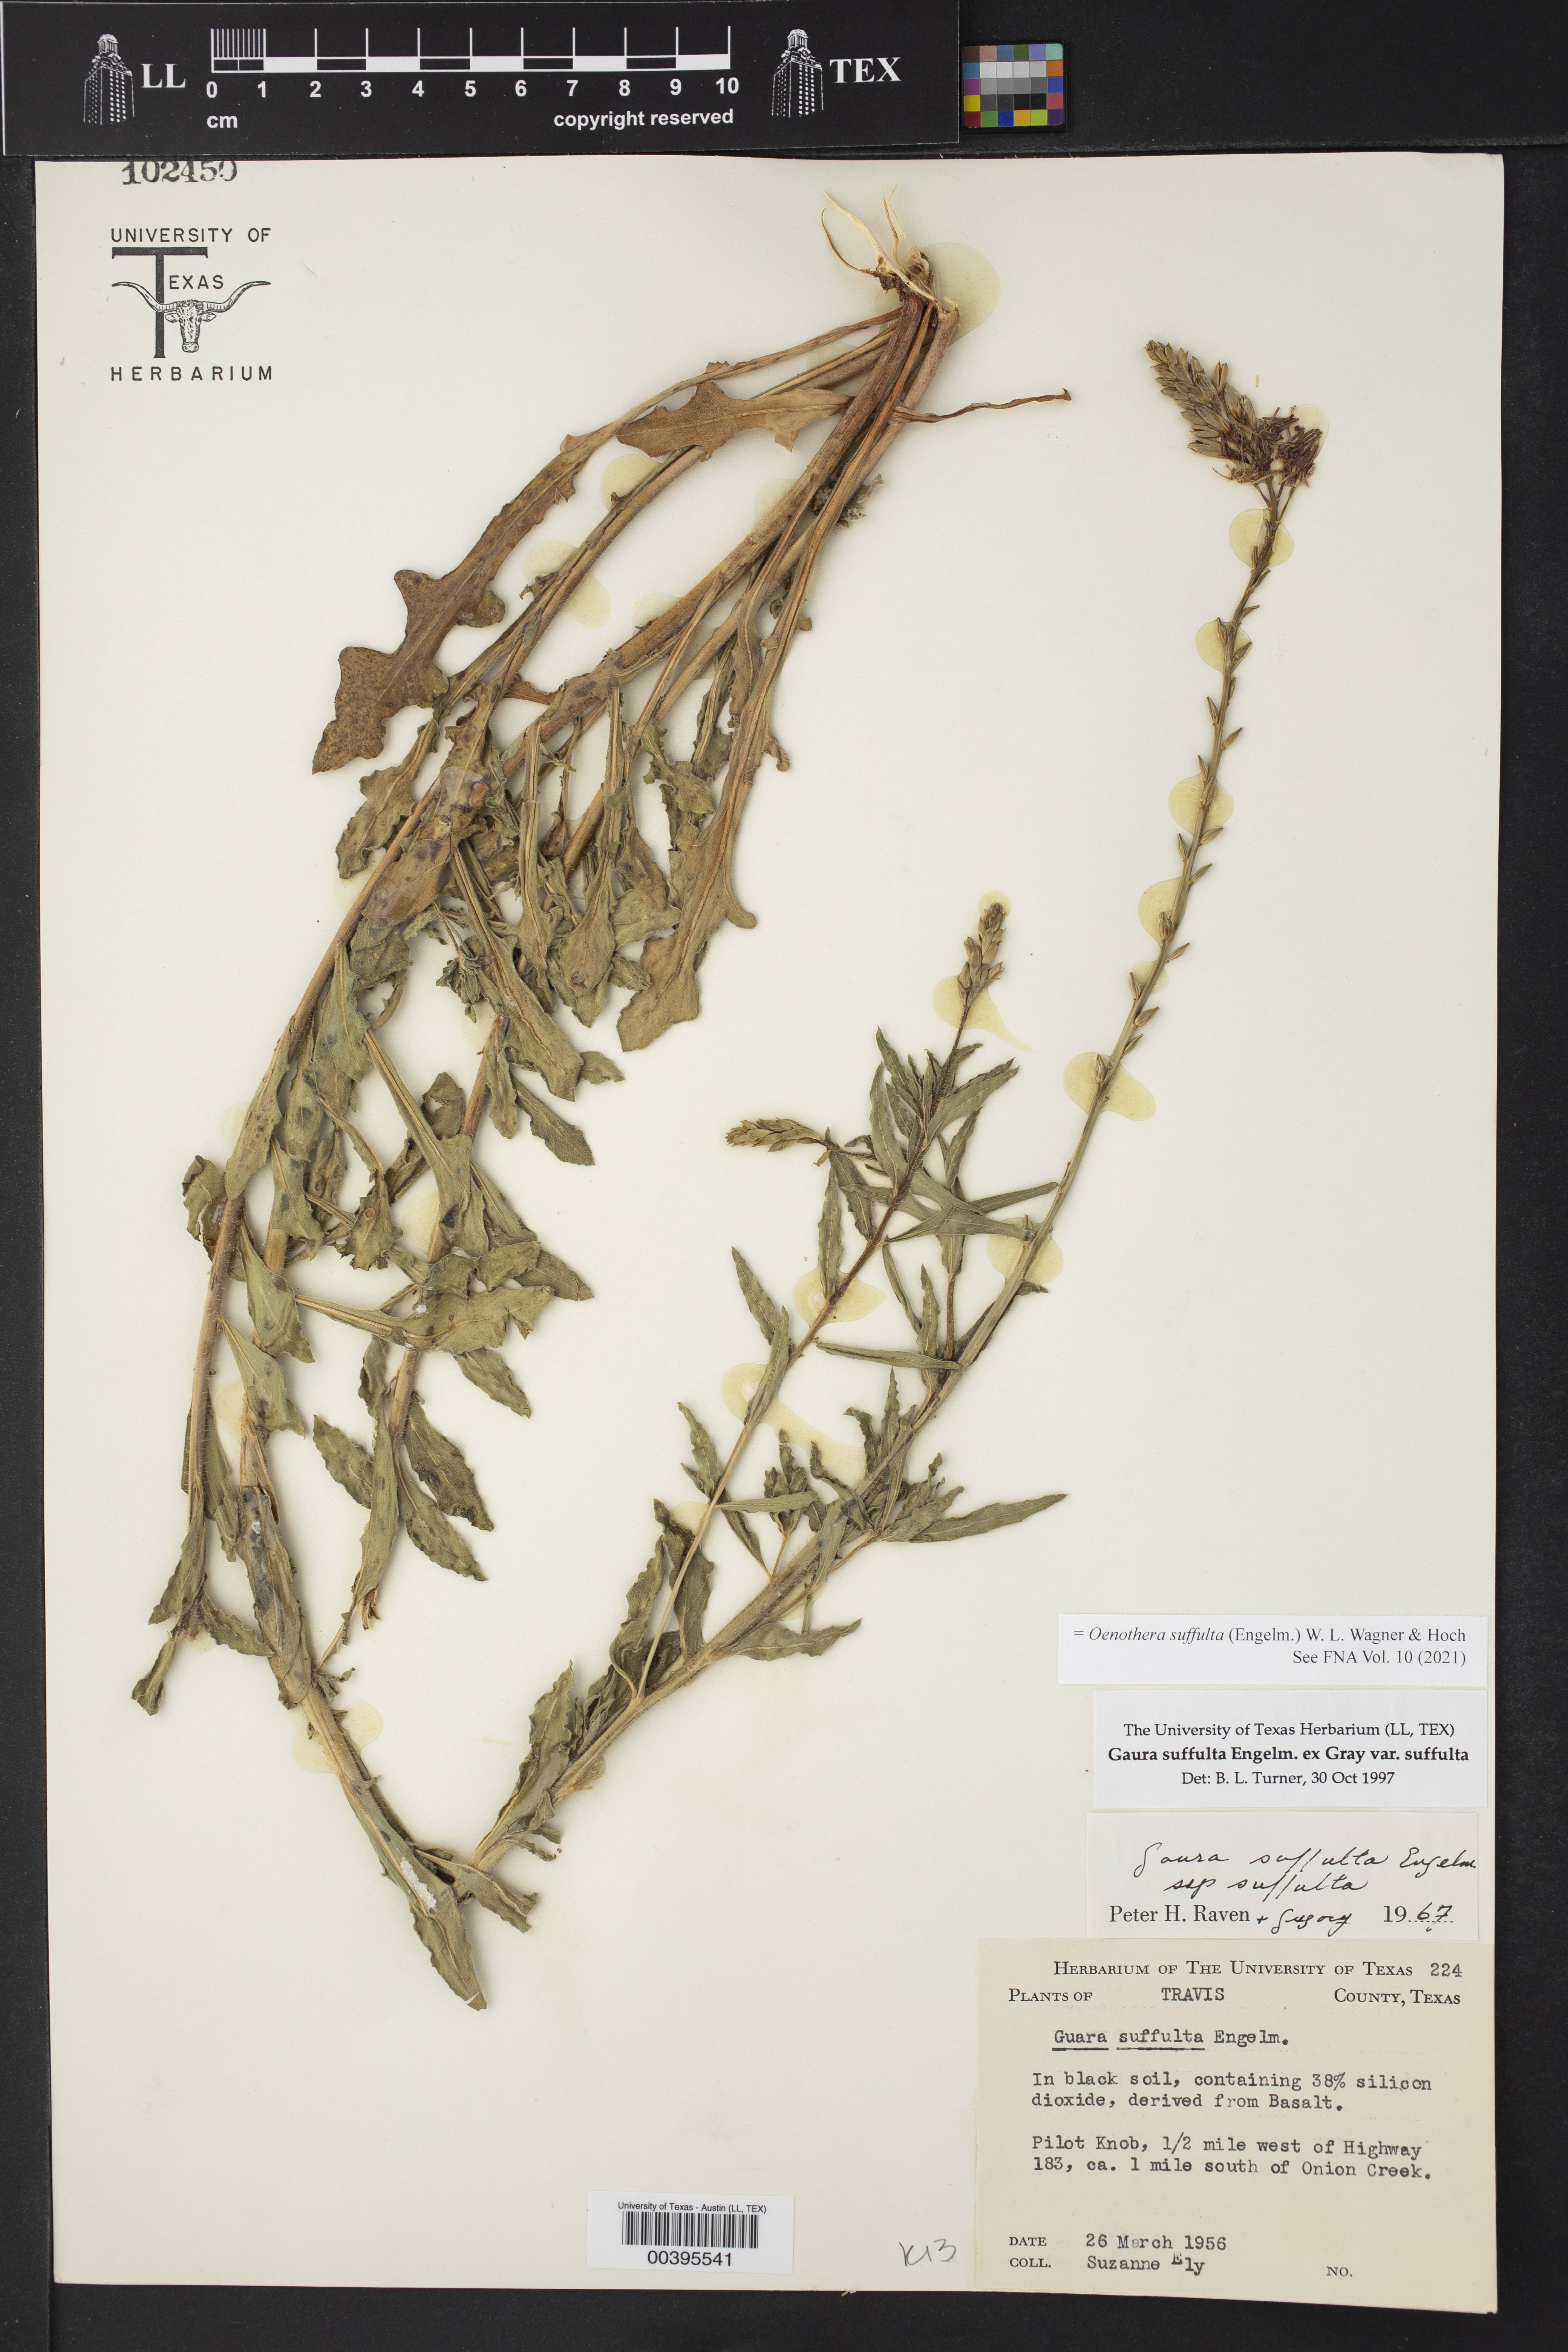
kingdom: Plantae
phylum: Tracheophyta
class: Magnoliopsida
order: Myrtales
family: Onagraceae
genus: Oenothera
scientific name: Oenothera suffulta
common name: Kisses
